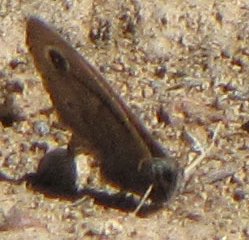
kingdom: Animalia
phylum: Arthropoda
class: Insecta
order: Lepidoptera
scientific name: Lepidoptera
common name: Butterflies
